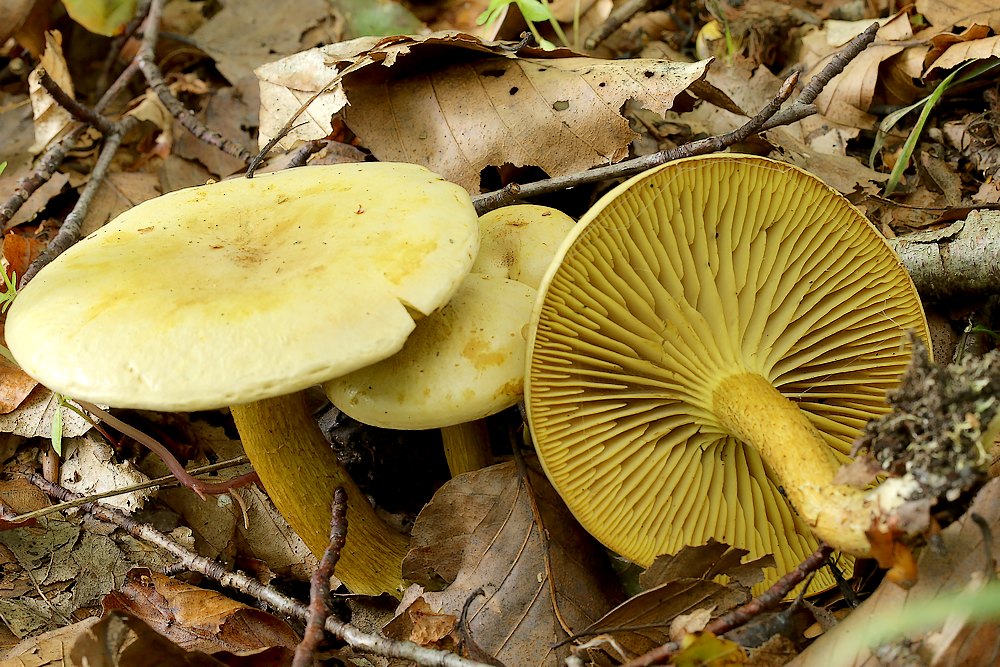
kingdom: Fungi
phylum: Basidiomycota
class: Agaricomycetes
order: Agaricales
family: Tricholomataceae
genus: Tricholoma
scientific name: Tricholoma sulphureum
